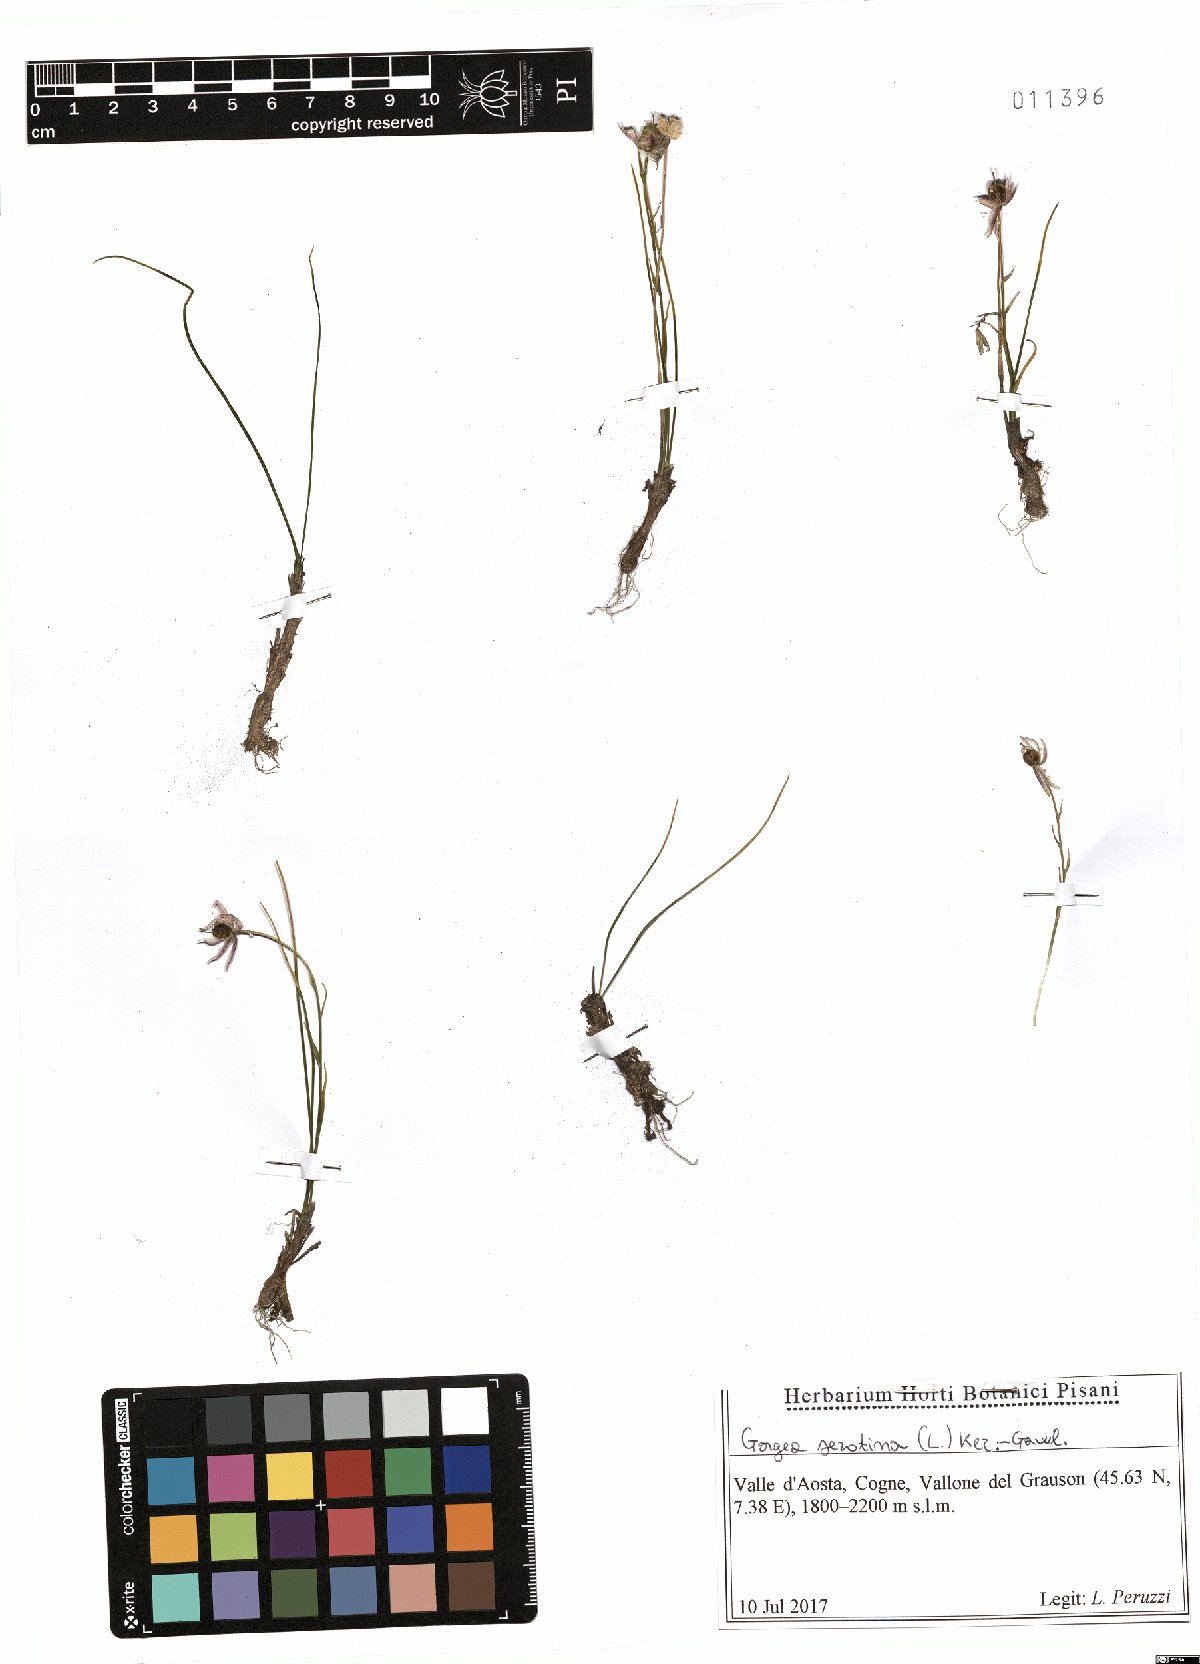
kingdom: Plantae
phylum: Tracheophyta
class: Liliopsida
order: Liliales
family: Liliaceae
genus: Gagea
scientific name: Gagea serotina
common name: Snowdon lily
